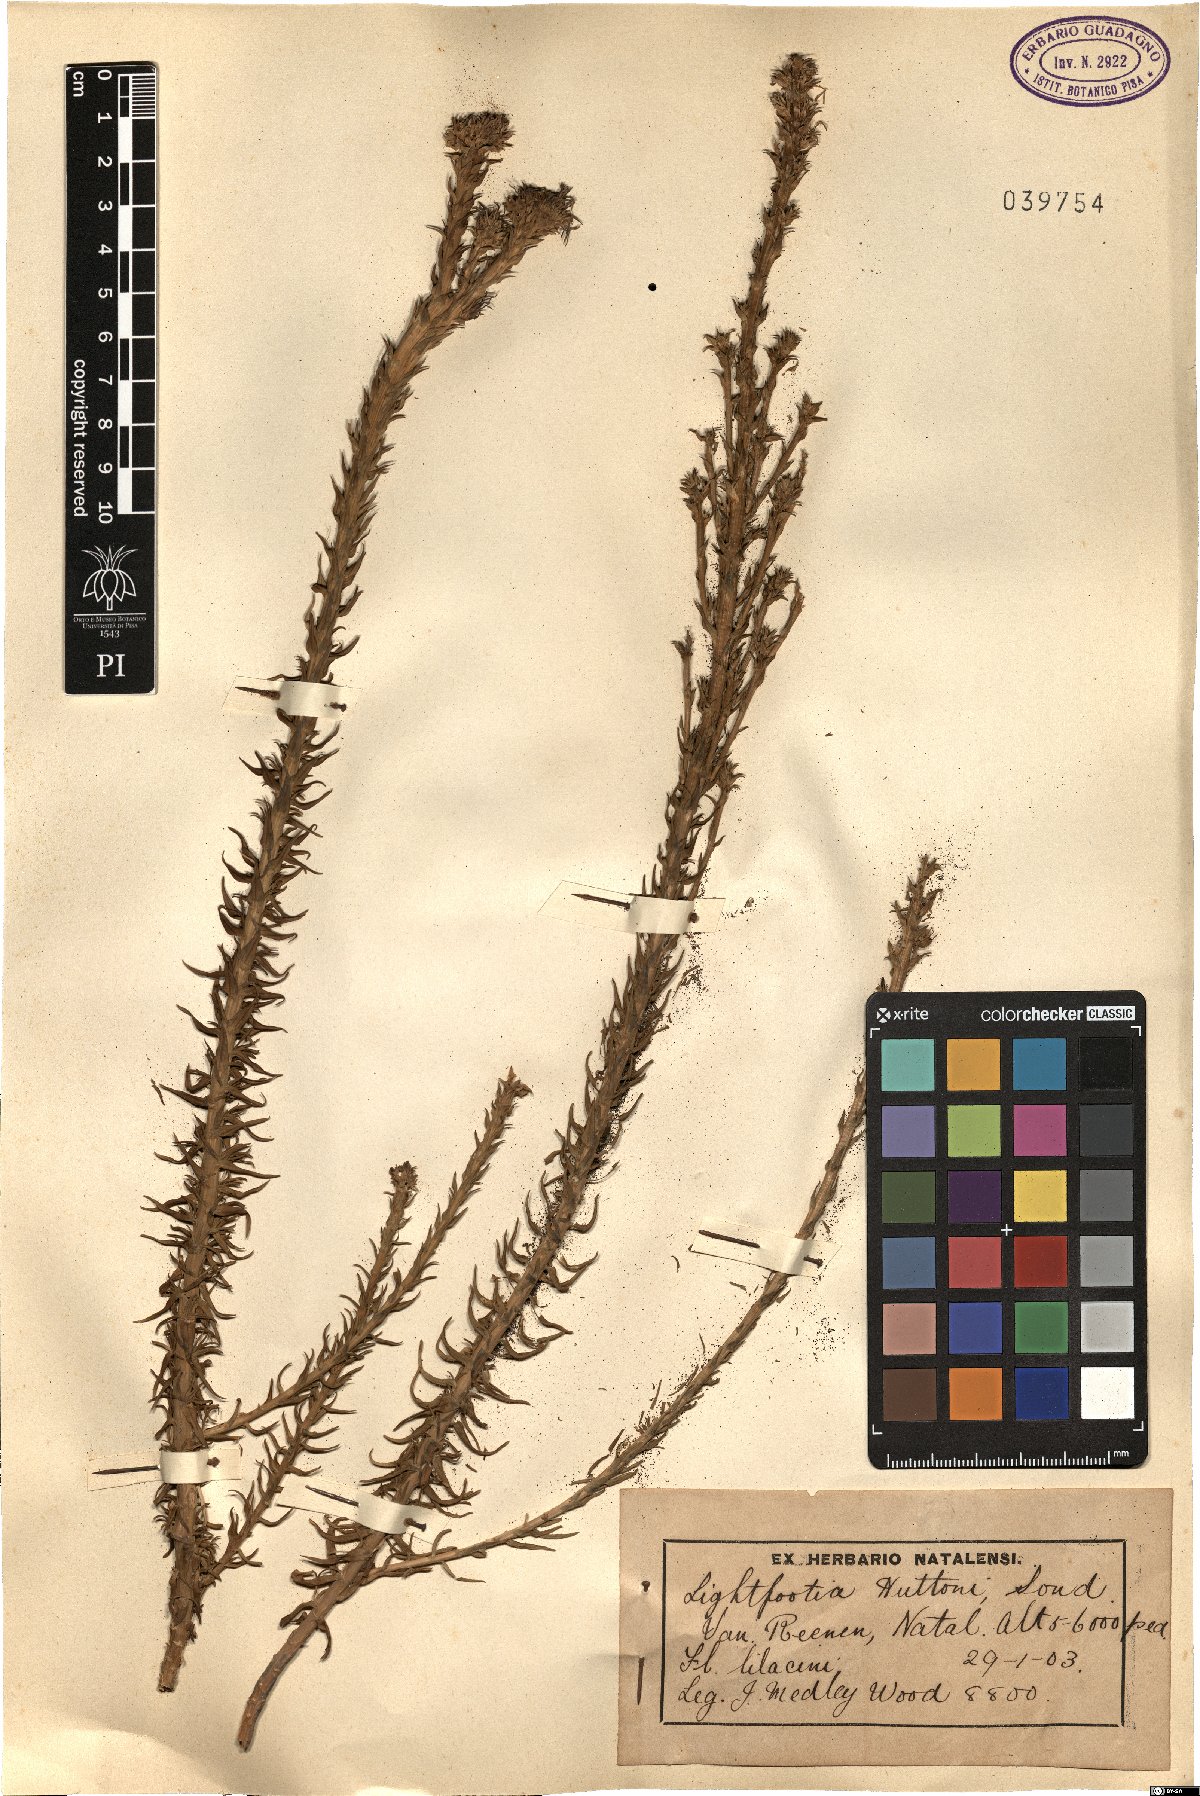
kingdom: Plantae
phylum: Tracheophyta
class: Magnoliopsida
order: Asterales
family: Campanulaceae
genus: Wahlenbergia
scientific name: Wahlenbergia huttonii
